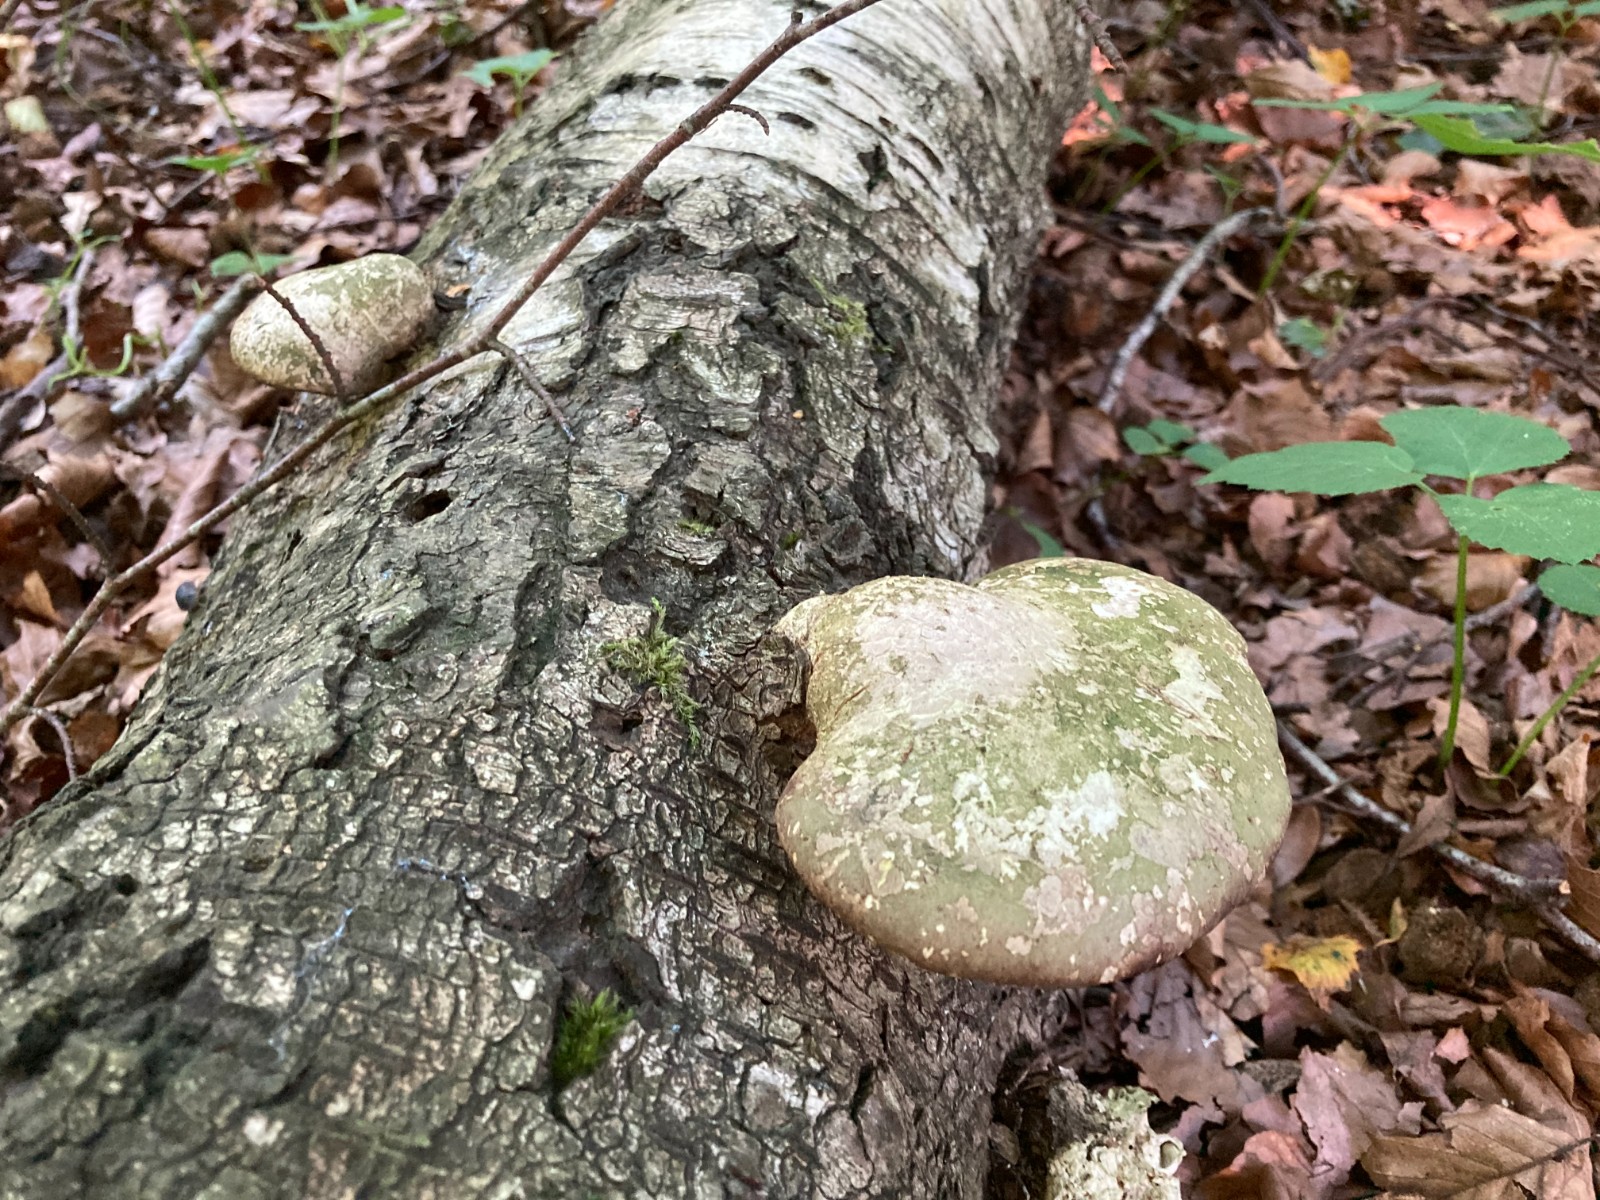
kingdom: Fungi
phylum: Basidiomycota
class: Agaricomycetes
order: Polyporales
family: Fomitopsidaceae
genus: Fomitopsis
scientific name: Fomitopsis betulina
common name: birkeporesvamp
